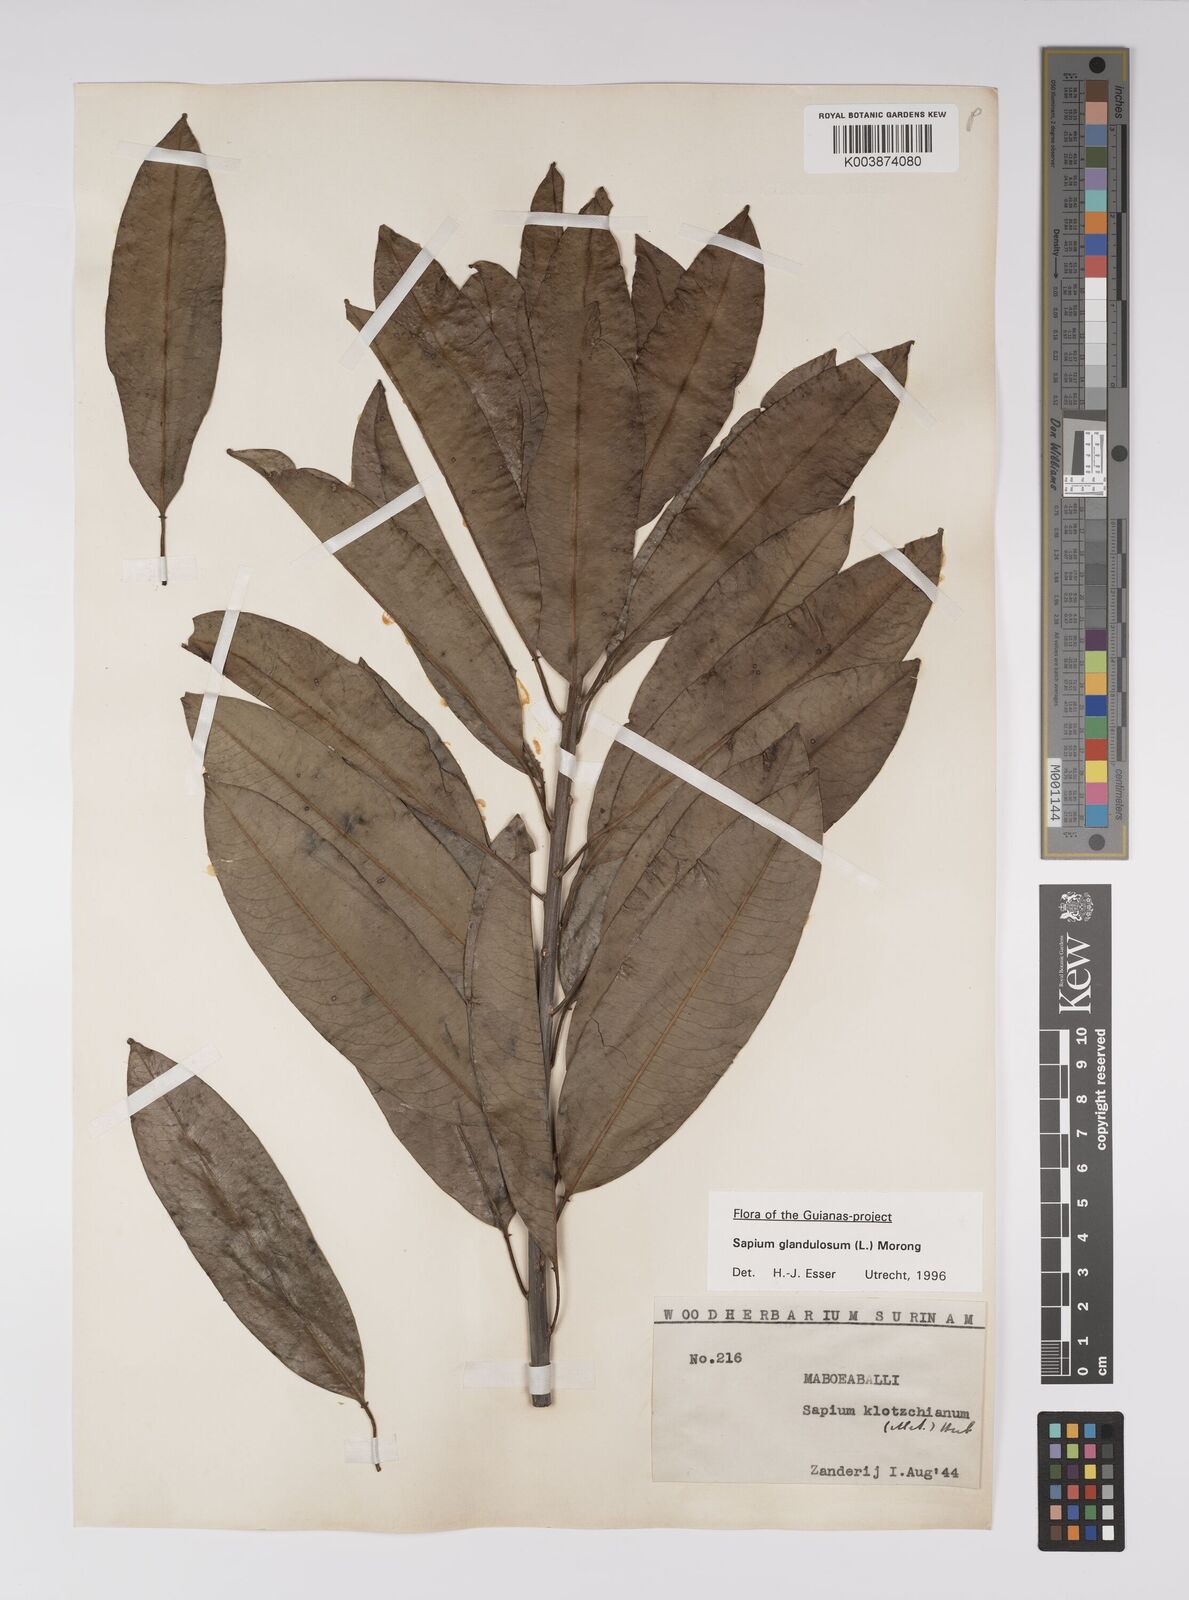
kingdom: Plantae
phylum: Tracheophyta
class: Magnoliopsida
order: Malpighiales
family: Euphorbiaceae
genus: Sapium
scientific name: Sapium glandulosum
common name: Milktree
